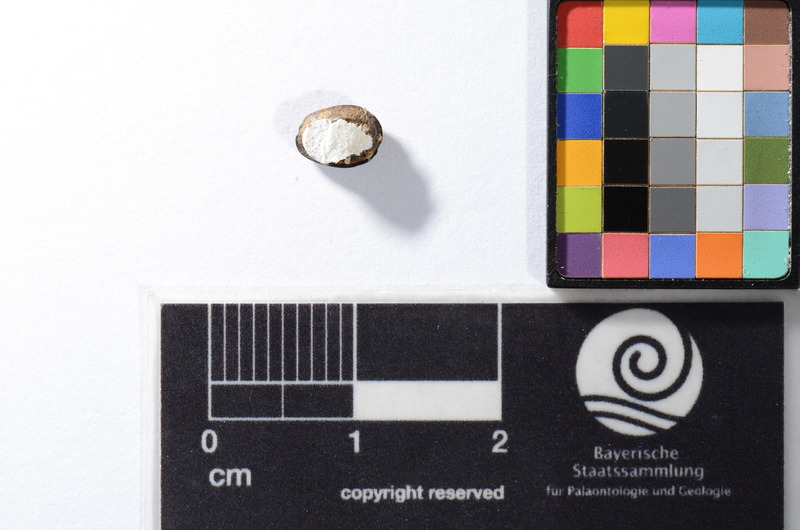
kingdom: Animalia
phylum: Chordata
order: Anguilliformes
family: Phyllodontidae
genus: Phyllodus
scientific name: Phyllodus
